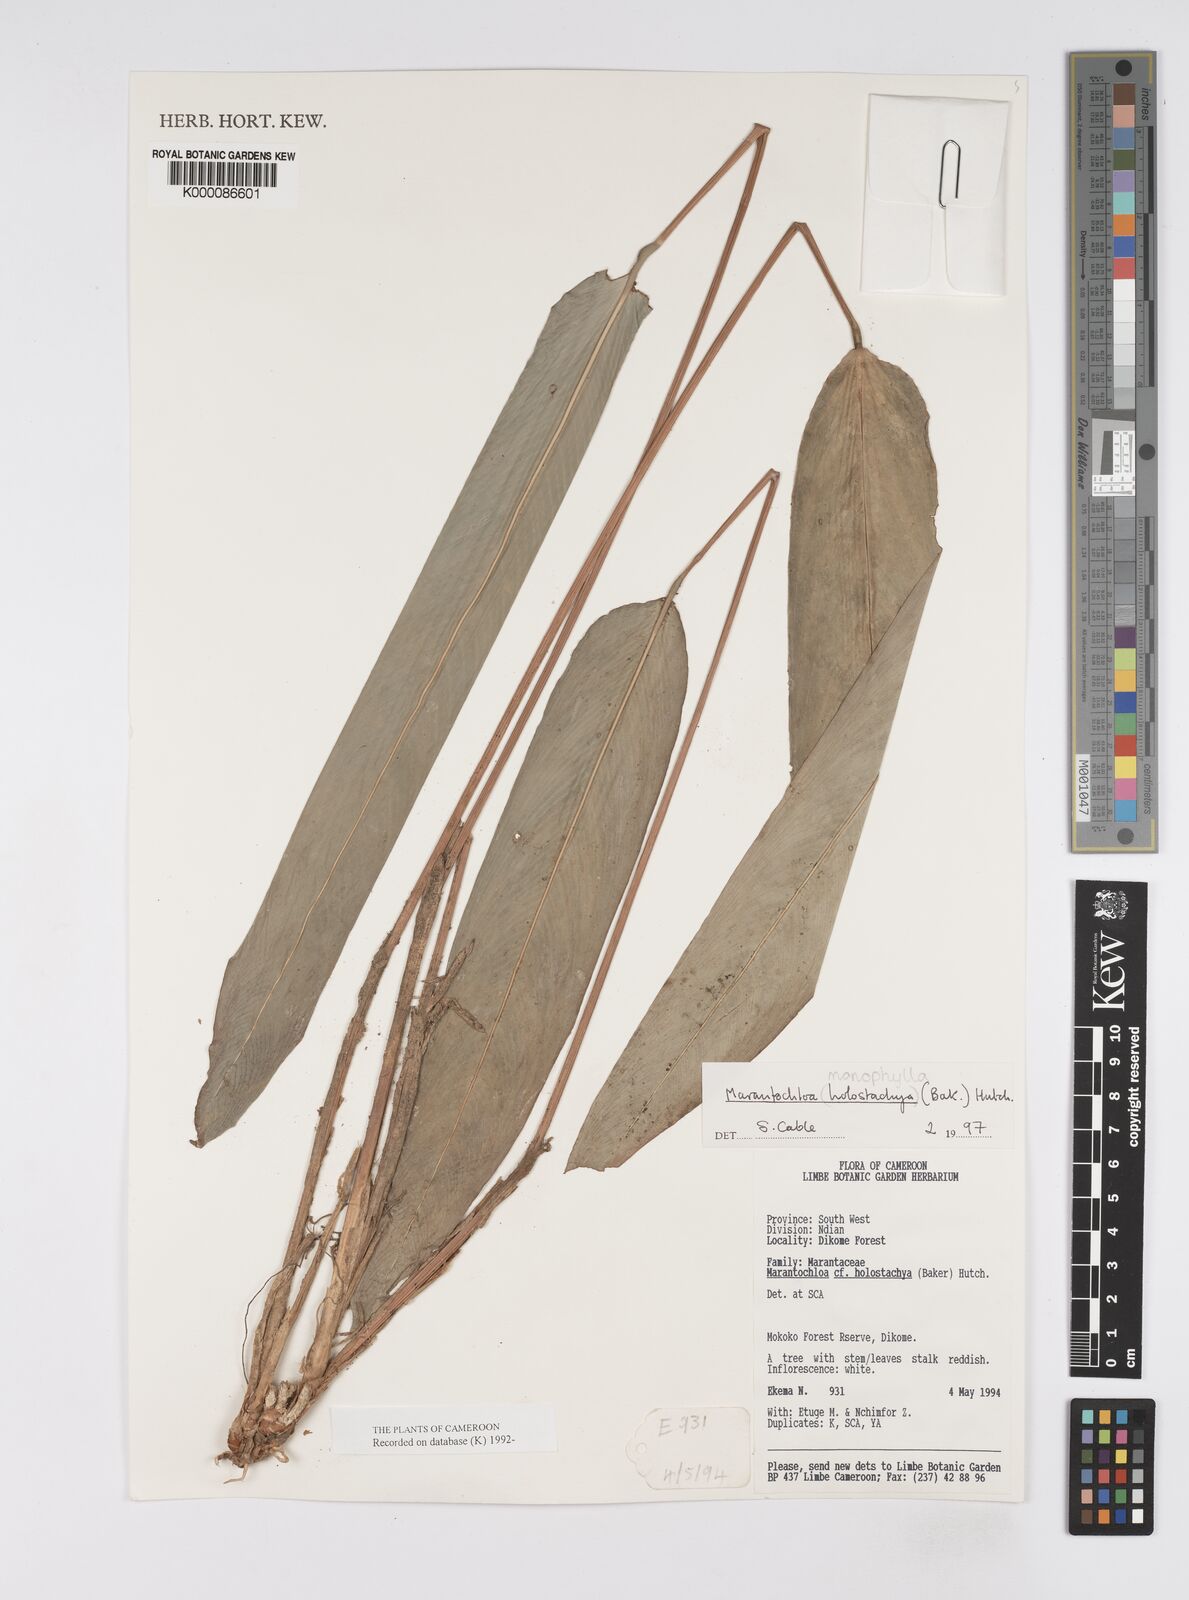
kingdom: Plantae
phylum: Tracheophyta
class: Liliopsida
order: Zingiberales
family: Marantaceae
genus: Marantochloa
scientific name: Marantochloa monophylla
